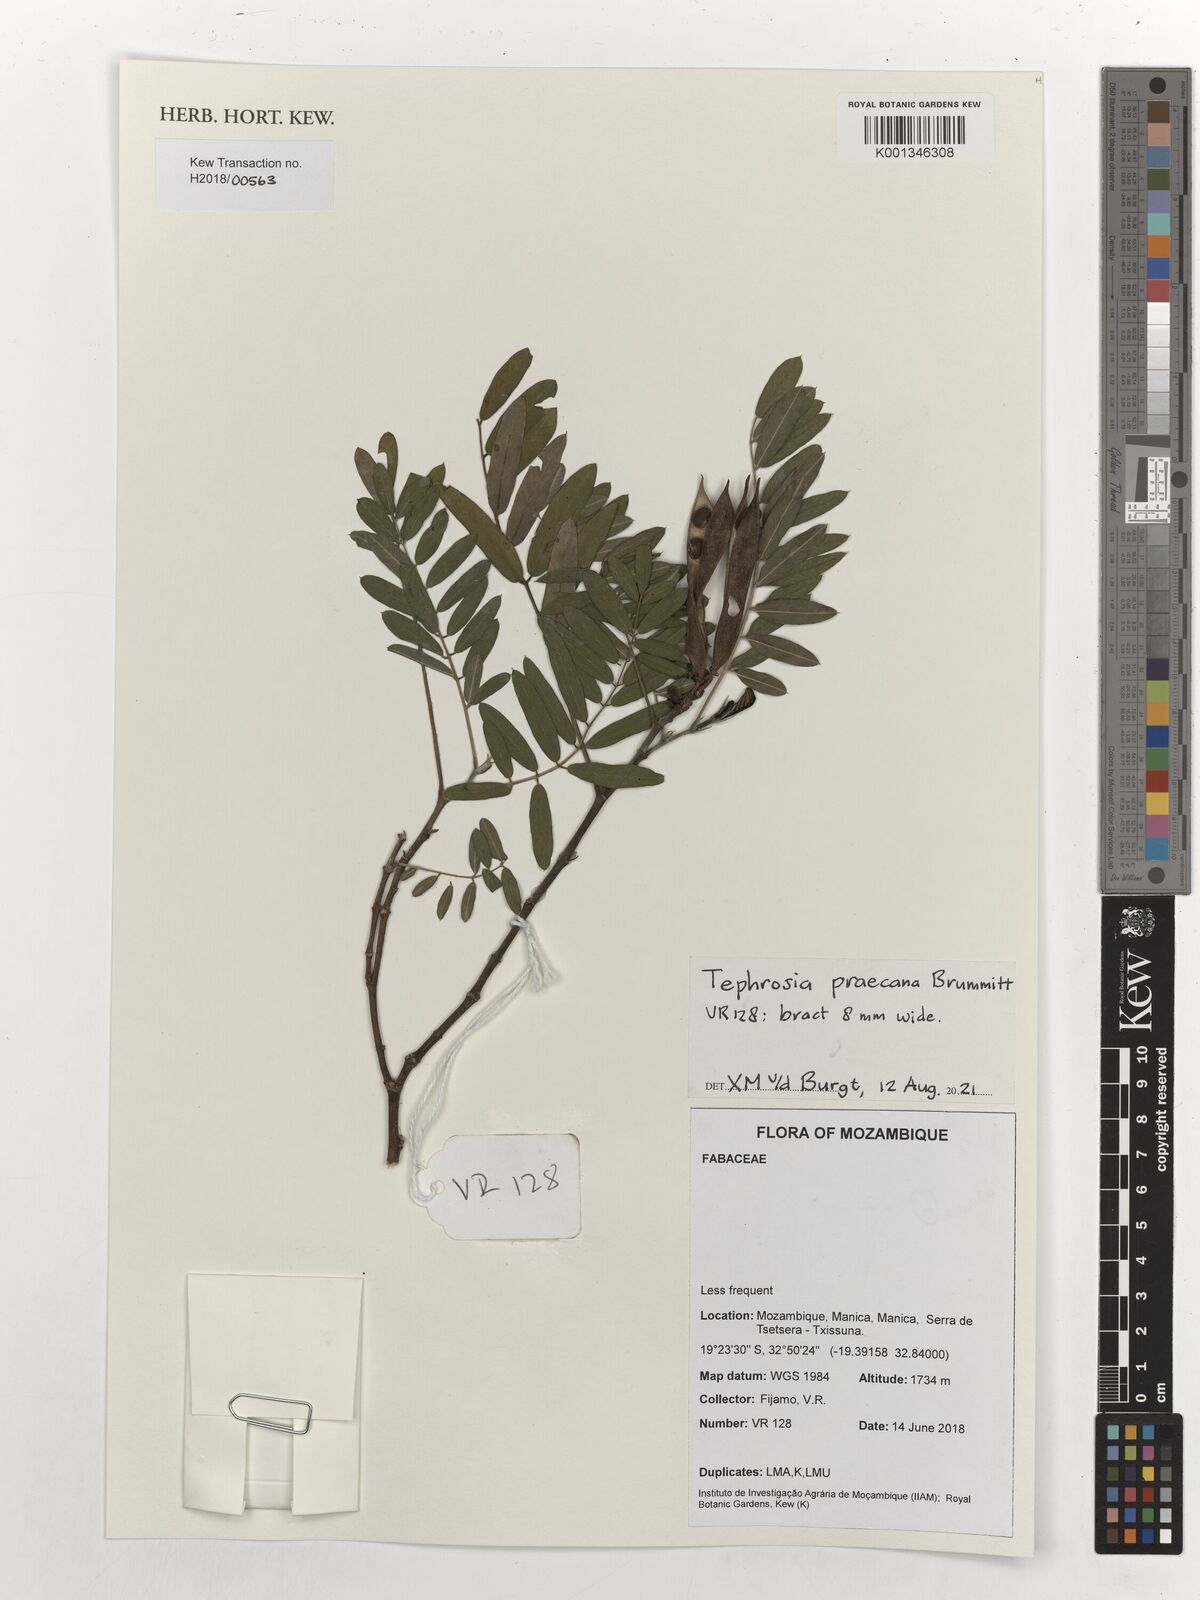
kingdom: Plantae
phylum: Tracheophyta
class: Magnoliopsida
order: Fabales
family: Fabaceae
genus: Tephrosia
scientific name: Tephrosia praecana
